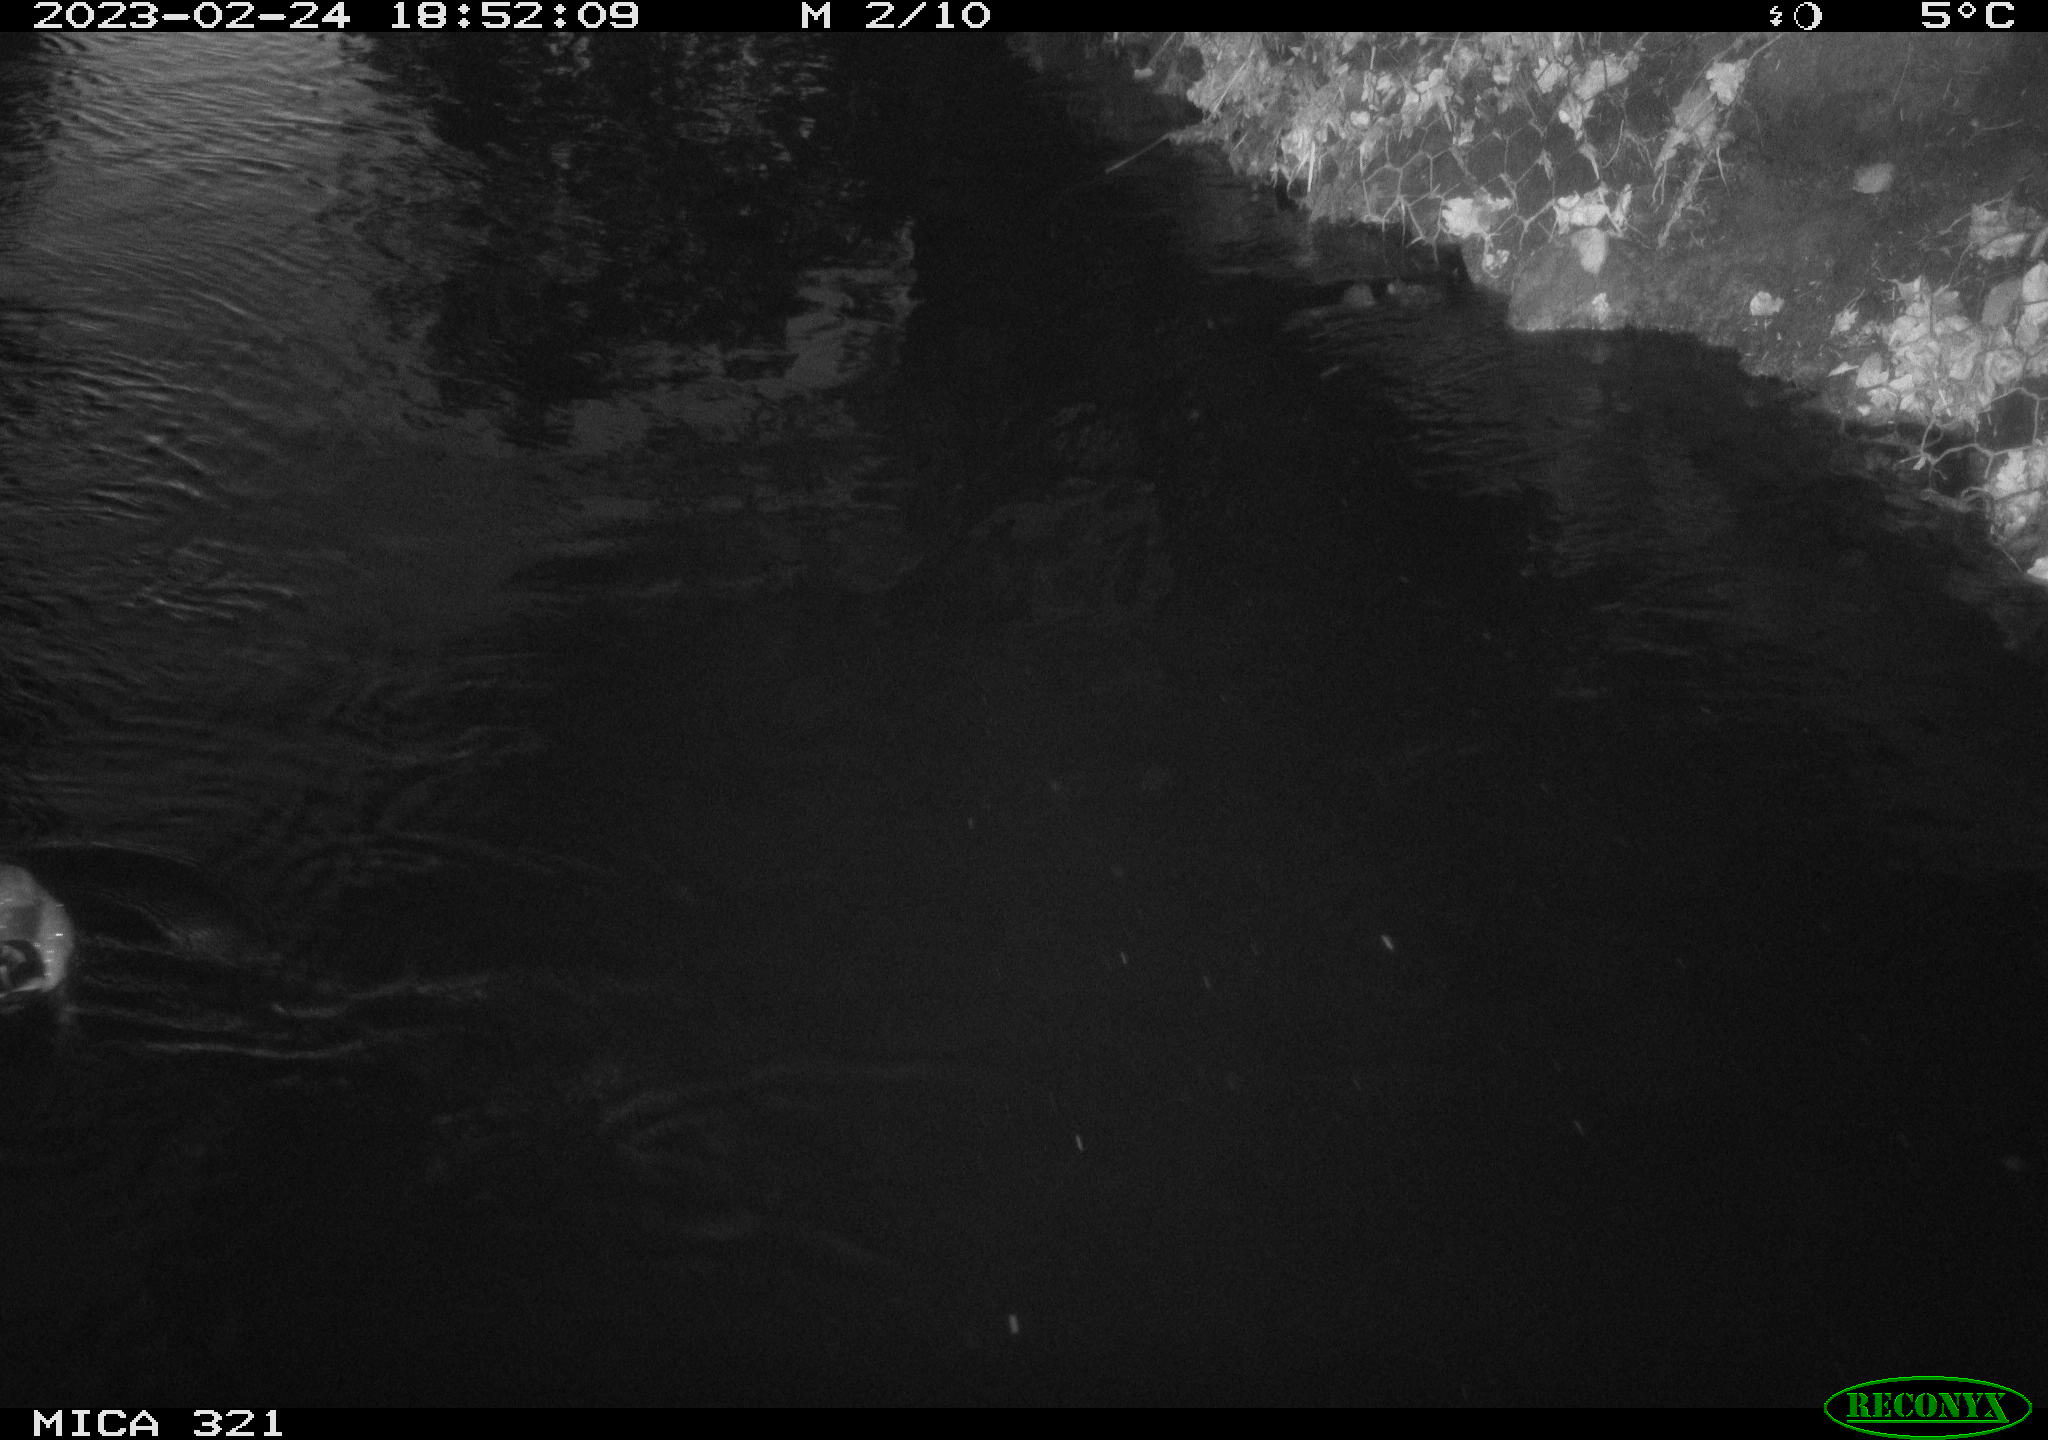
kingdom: Animalia
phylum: Chordata
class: Aves
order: Anseriformes
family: Anatidae
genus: Anas
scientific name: Anas
